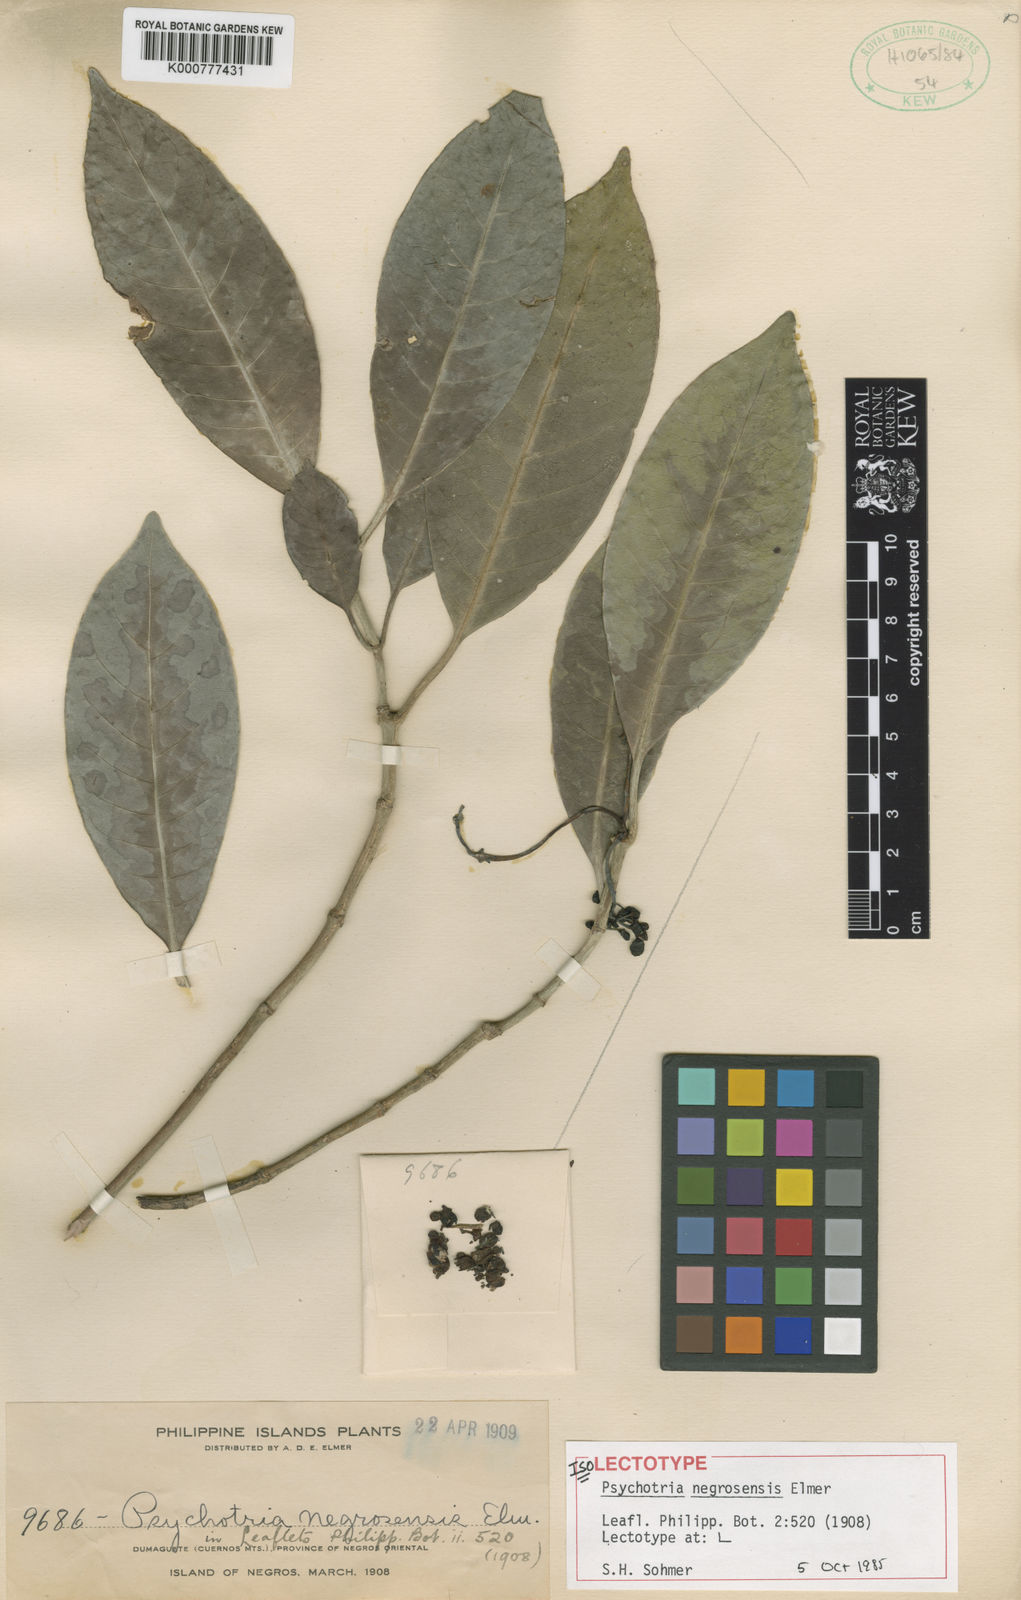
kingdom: Plantae
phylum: Tracheophyta
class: Magnoliopsida
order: Gentianales
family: Rubiaceae
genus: Psychotria
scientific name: Psychotria negrosensis
